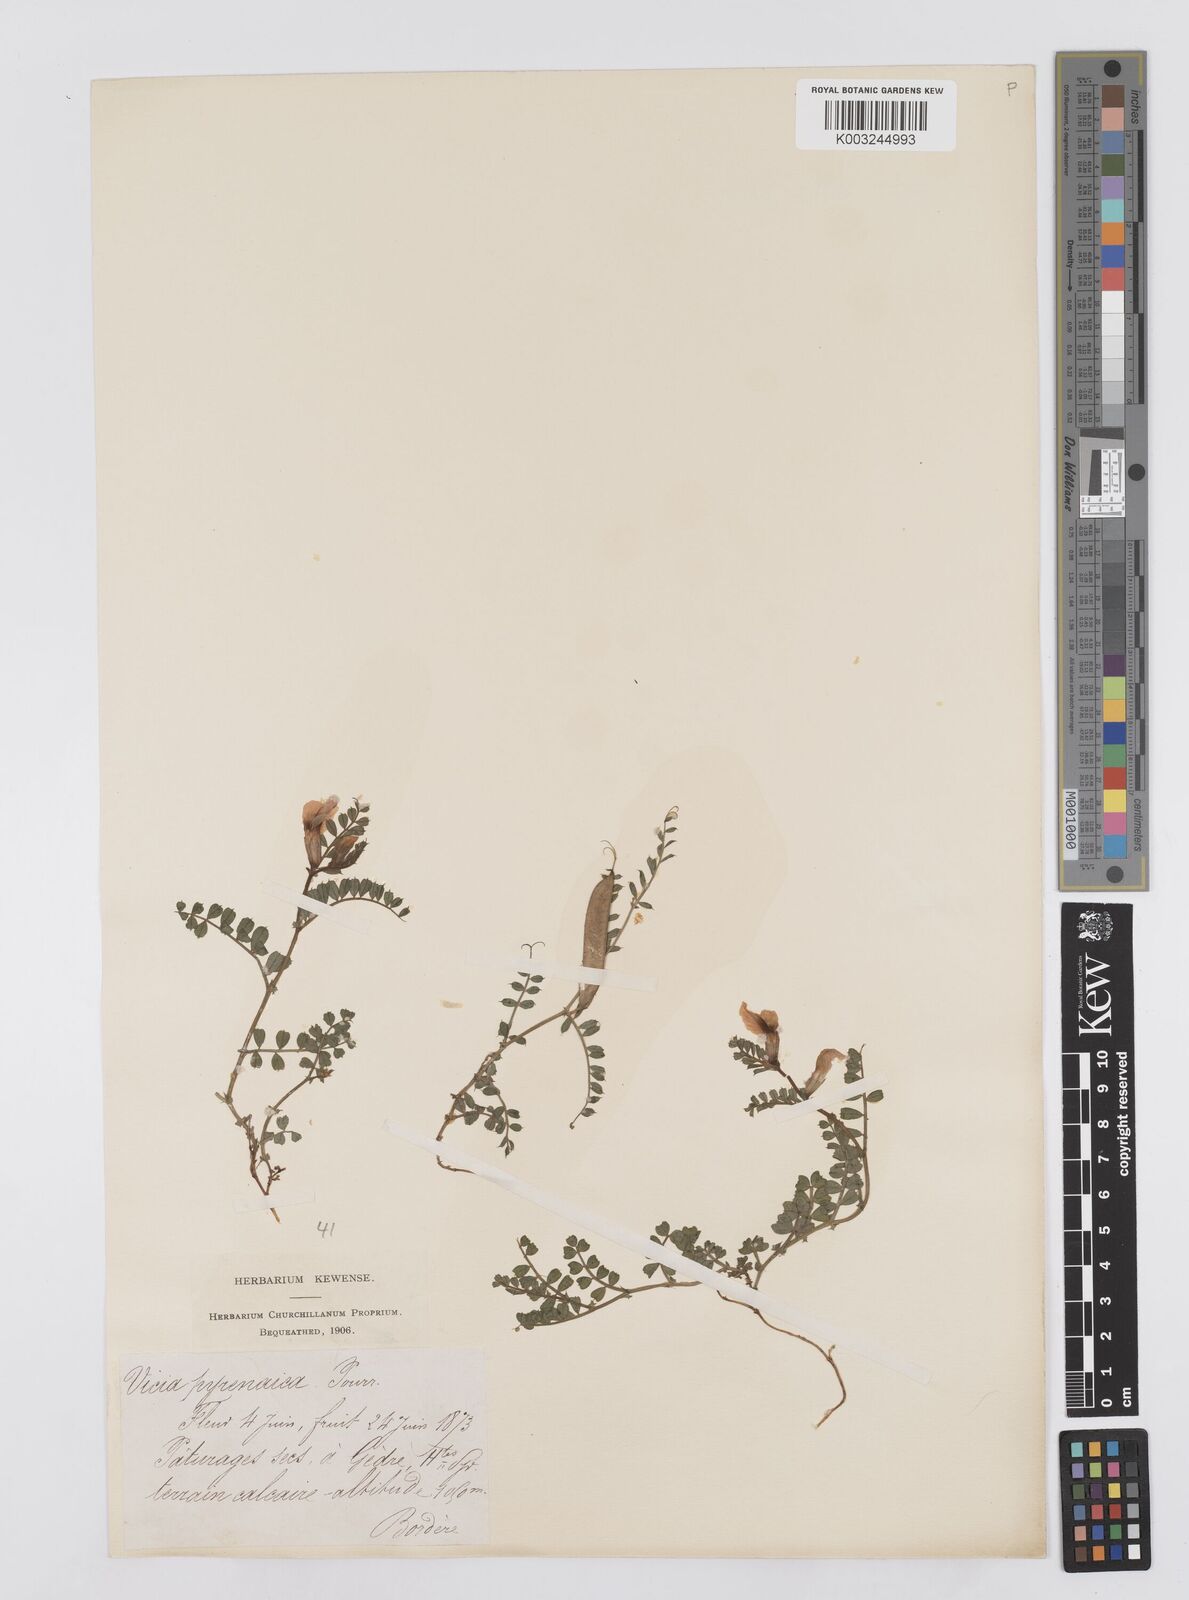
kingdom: Plantae
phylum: Tracheophyta
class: Magnoliopsida
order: Fabales
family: Fabaceae
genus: Vicia
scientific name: Vicia pyrenaica
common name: Pyrenean vetch
